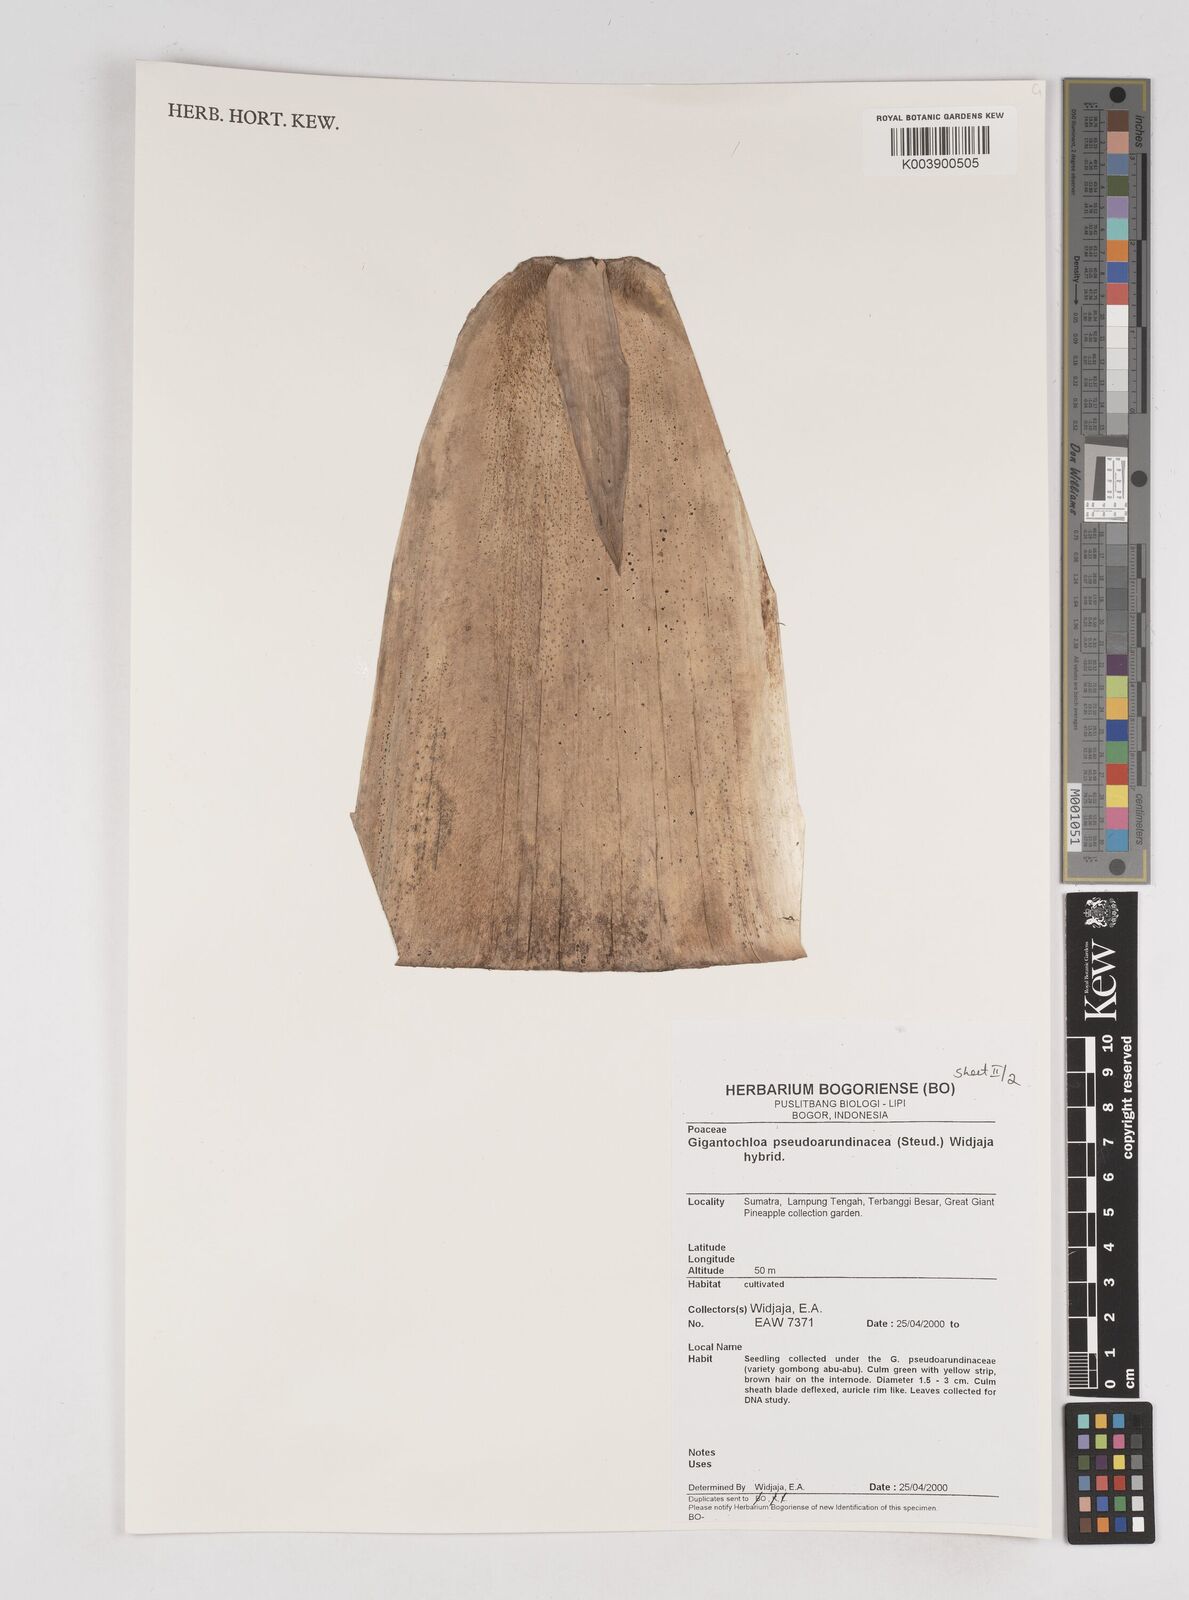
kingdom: Plantae
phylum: Tracheophyta
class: Liliopsida
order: Poales
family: Poaceae
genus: Gigantochloa
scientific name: Gigantochloa verticillata
